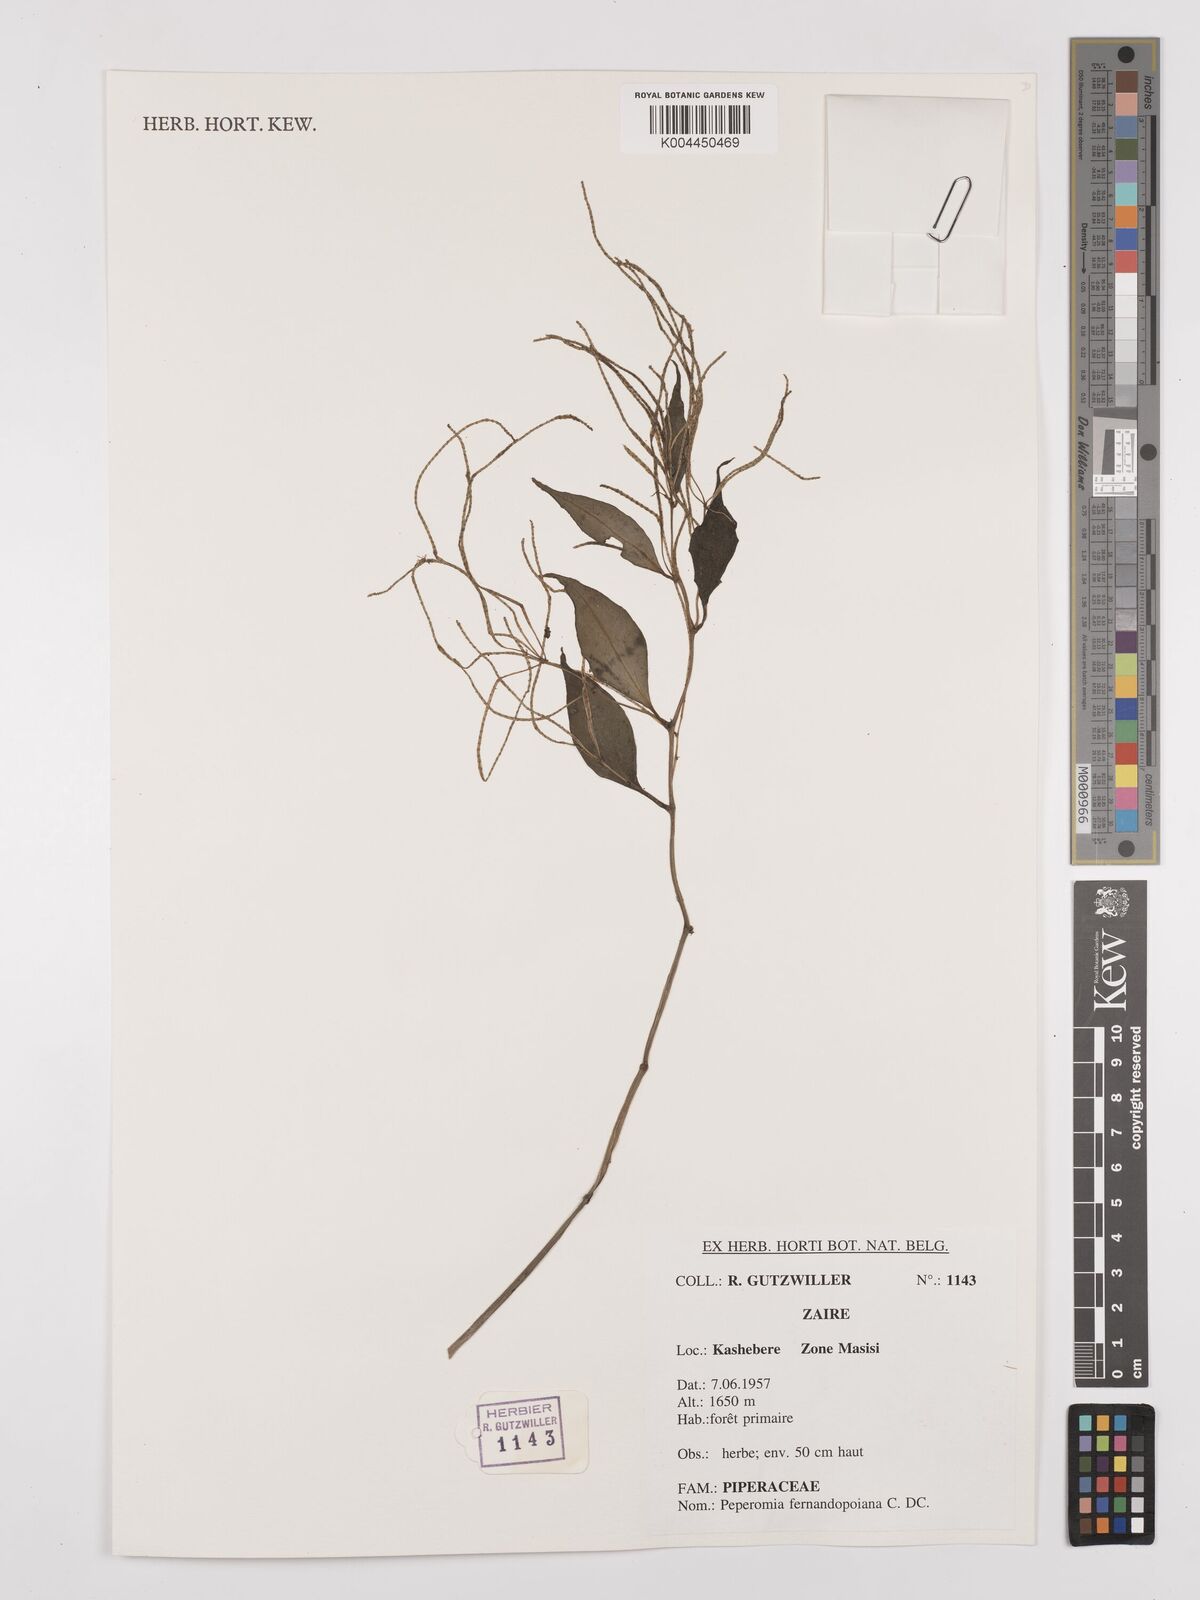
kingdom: Plantae
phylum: Tracheophyta
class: Magnoliopsida
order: Piperales
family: Piperaceae
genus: Peperomia
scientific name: Peperomia fernandopoiana
